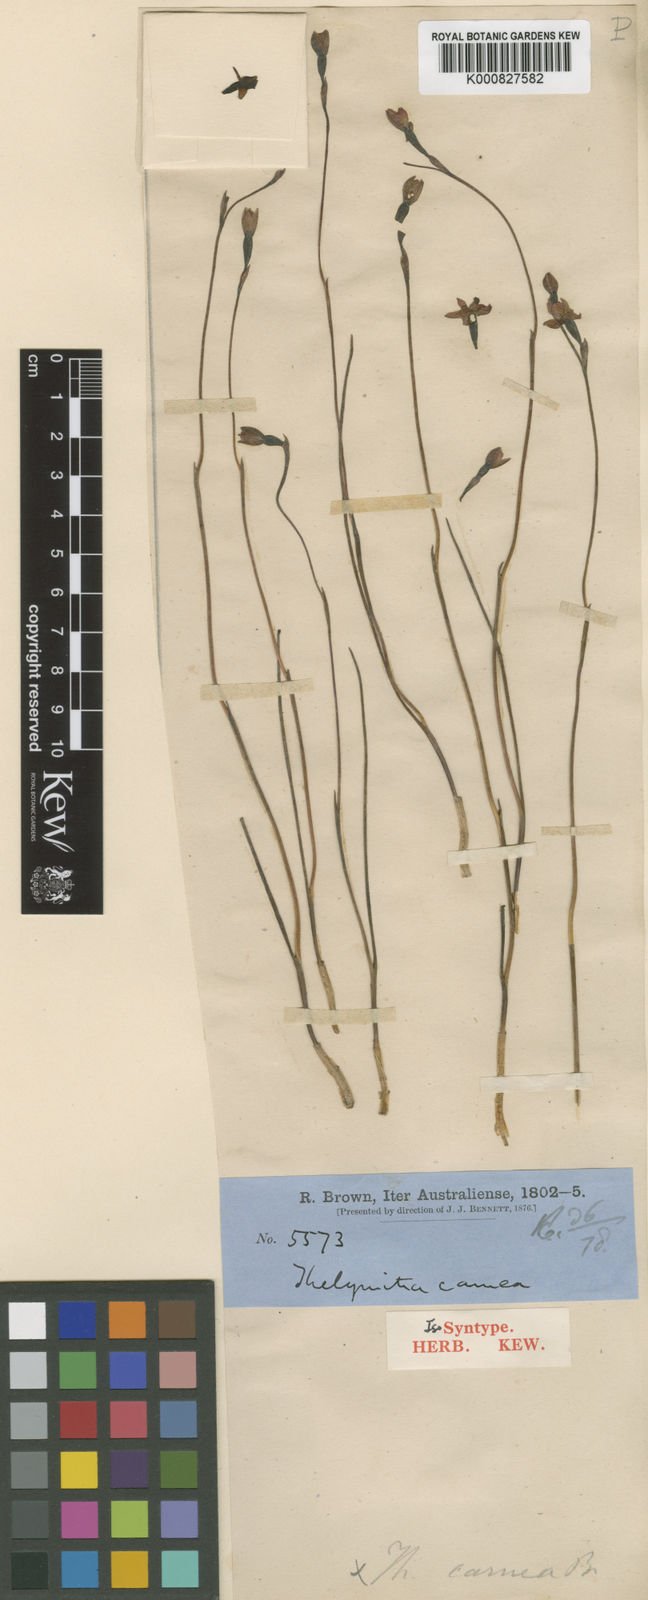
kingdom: Plantae
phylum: Tracheophyta
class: Liliopsida
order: Asparagales
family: Orchidaceae
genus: Thelymitra
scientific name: Thelymitra carnea
